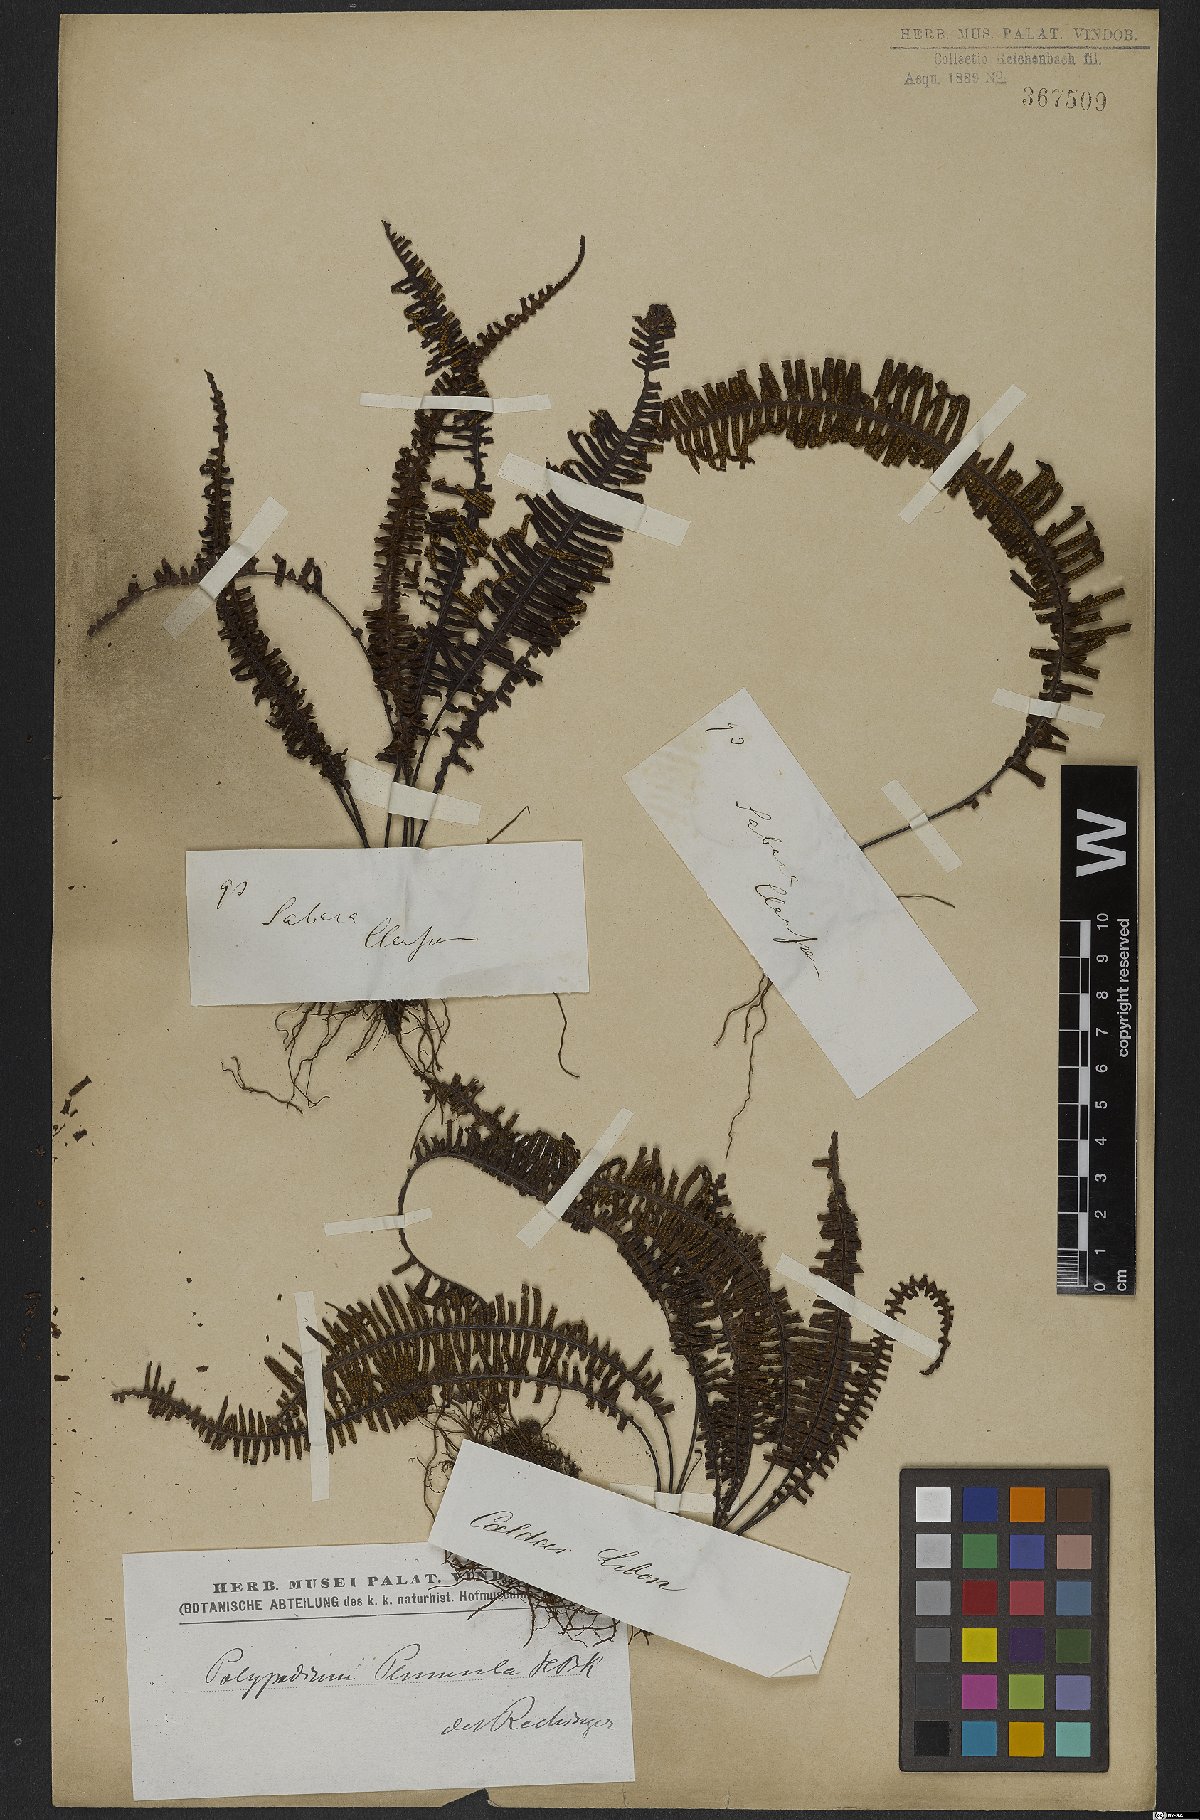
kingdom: Plantae
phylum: Tracheophyta
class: Polypodiopsida
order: Polypodiales
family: Polypodiaceae
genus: Pecluma
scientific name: Pecluma plumula
